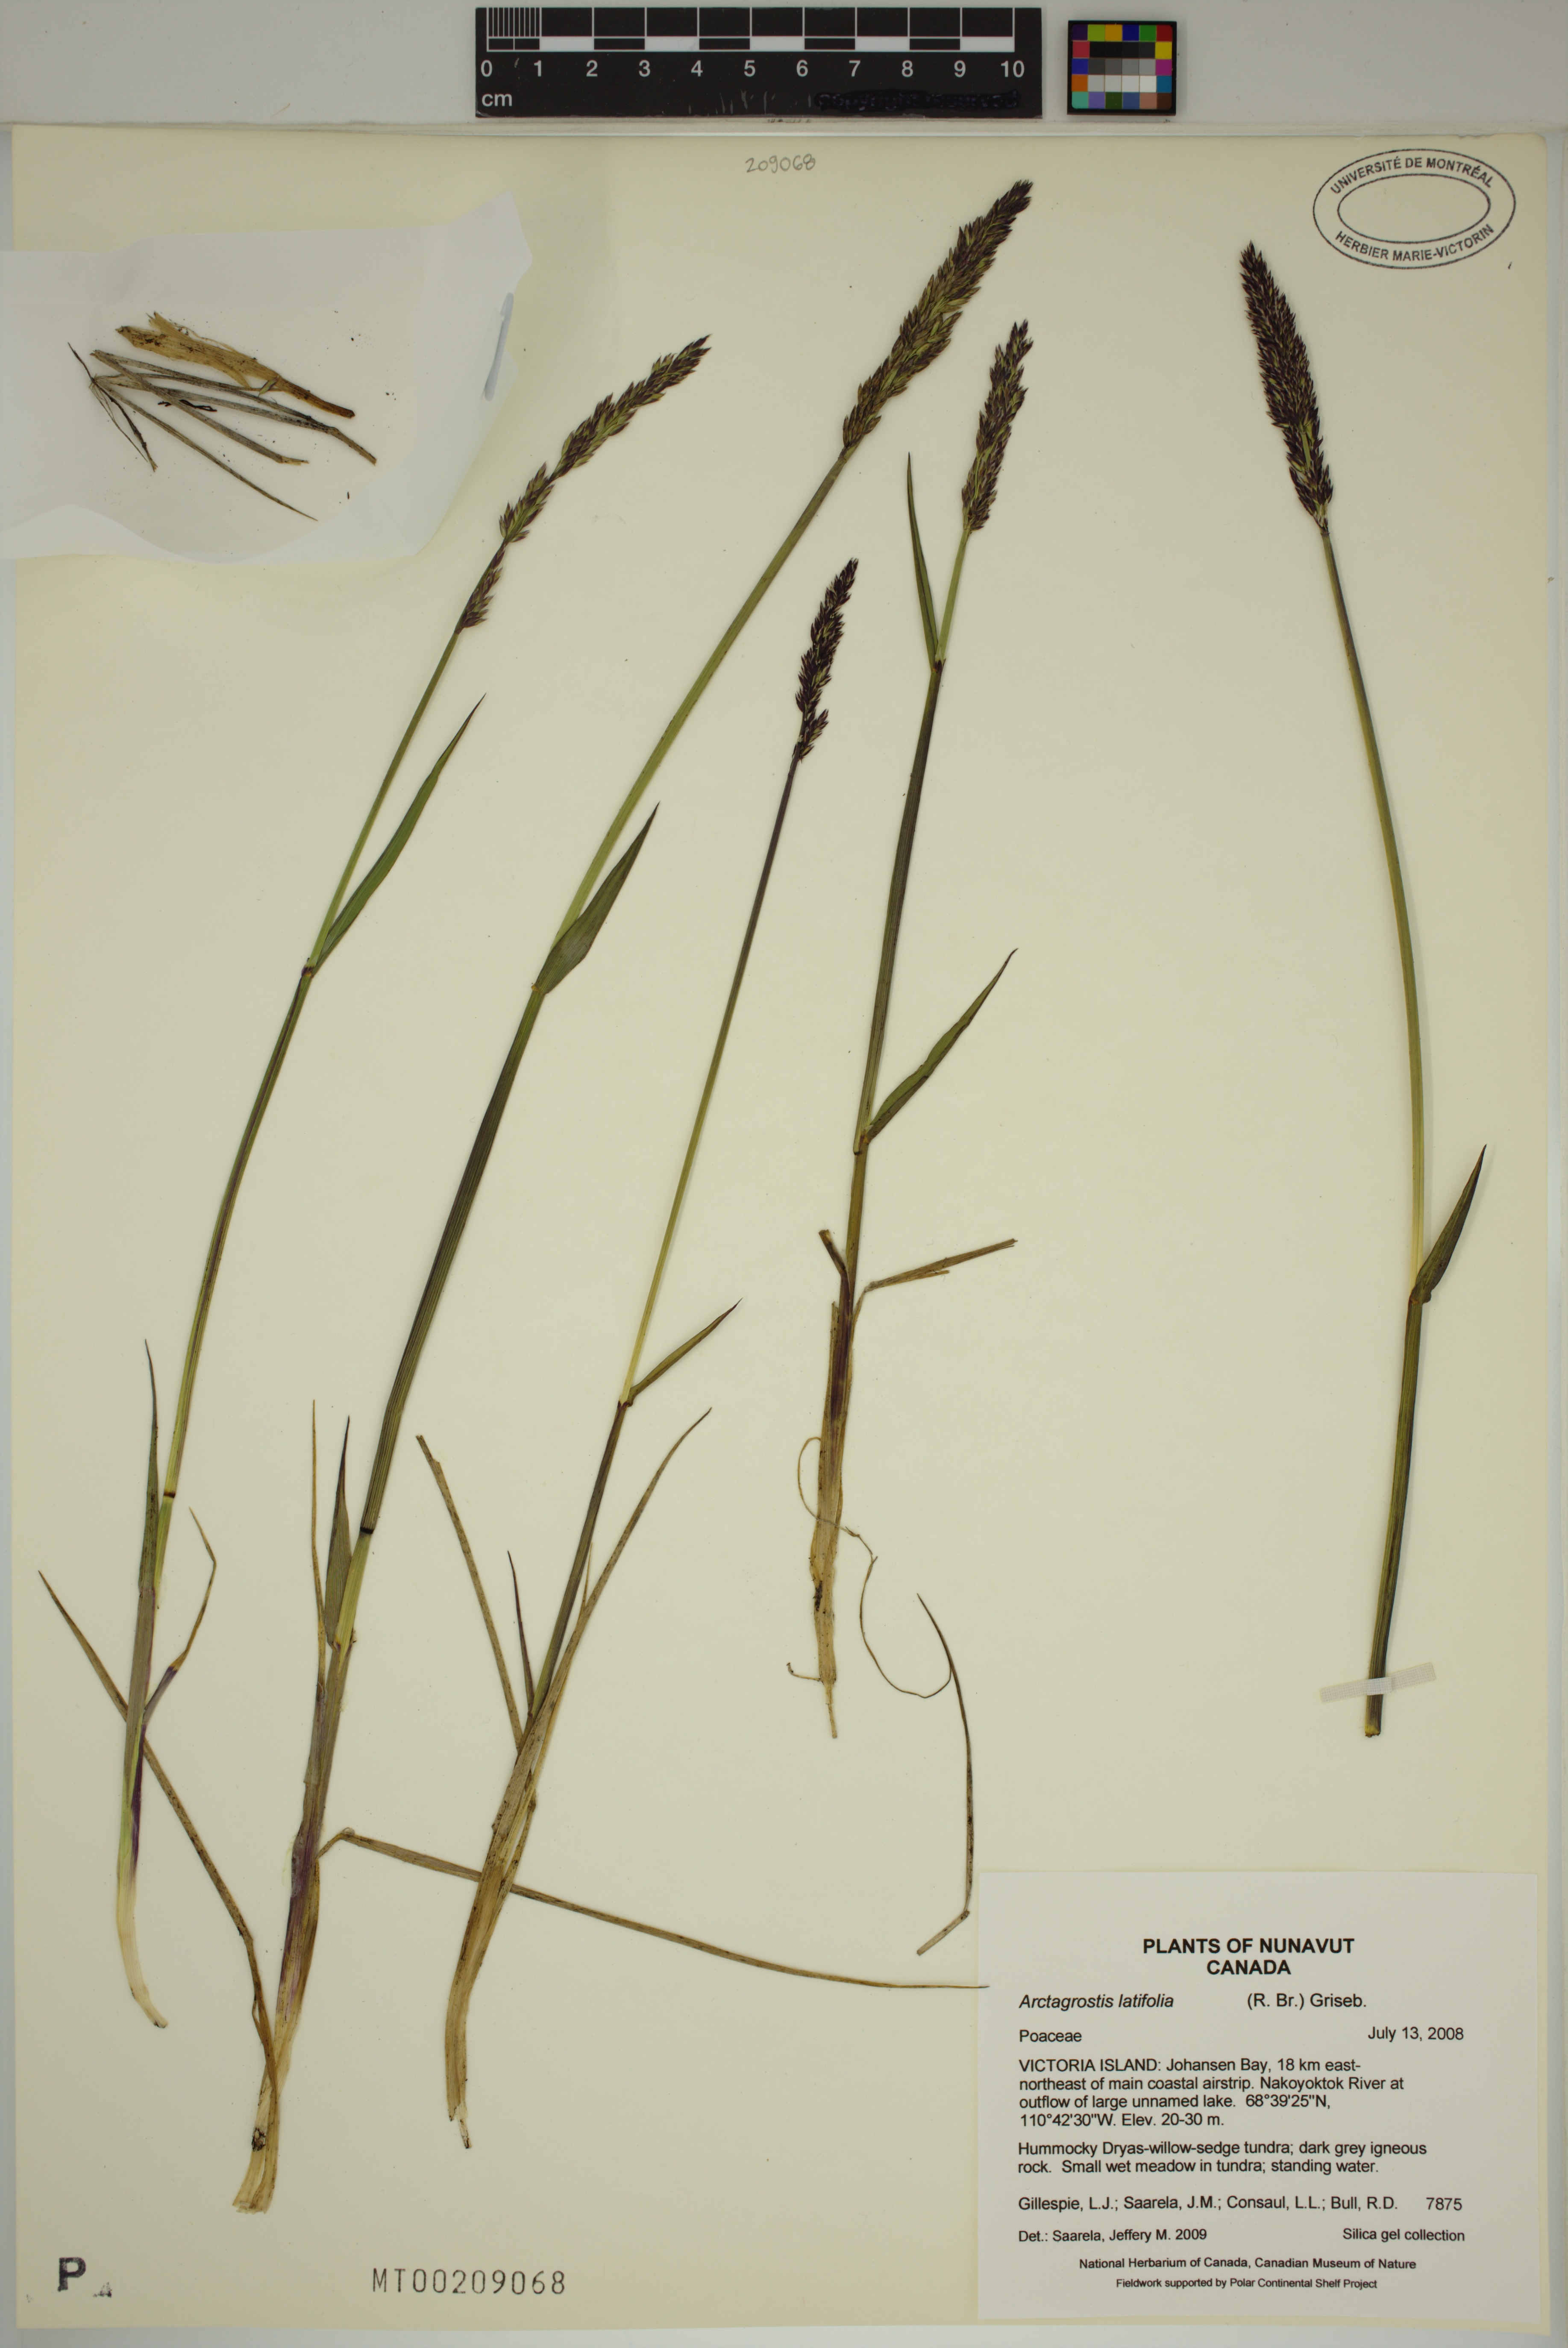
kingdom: Plantae
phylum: Tracheophyta
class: Liliopsida
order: Poales
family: Poaceae
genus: Arctagrostis
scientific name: Arctagrostis latifolia
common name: Arctic grass
